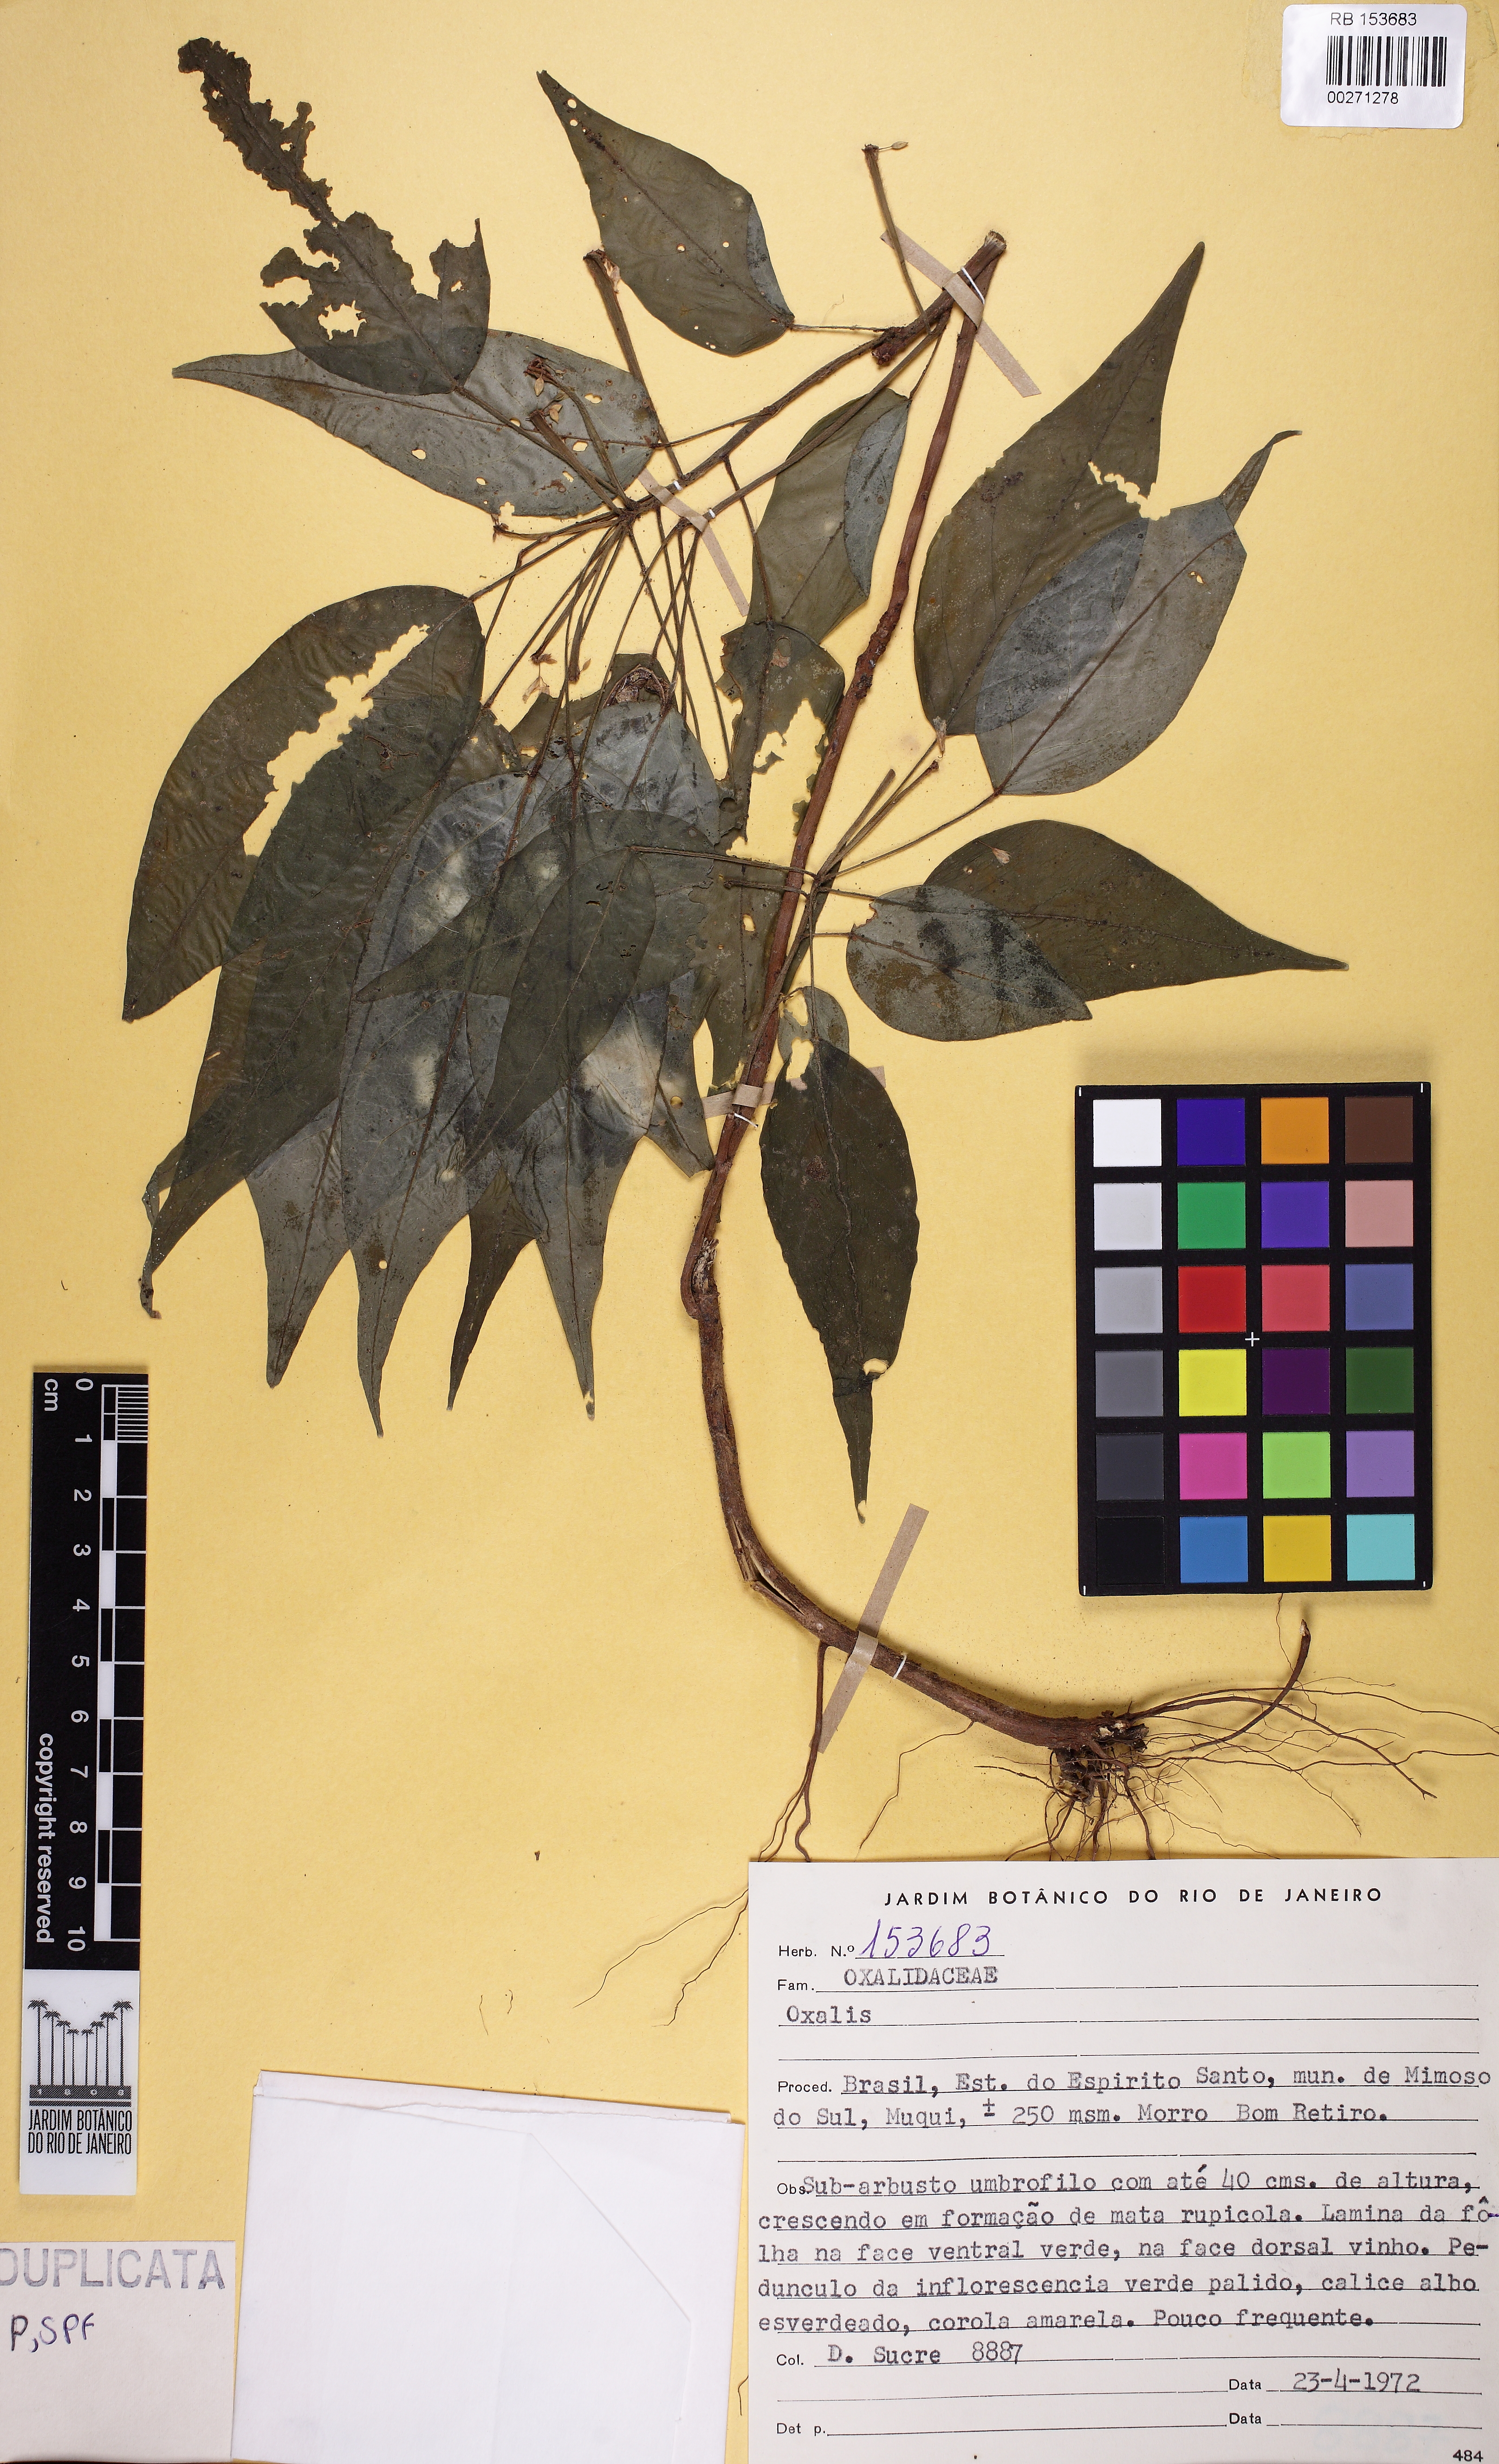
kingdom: Plantae
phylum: Tracheophyta
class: Magnoliopsida
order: Oxalidales
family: Oxalidaceae
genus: Oxalis
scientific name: Oxalis
